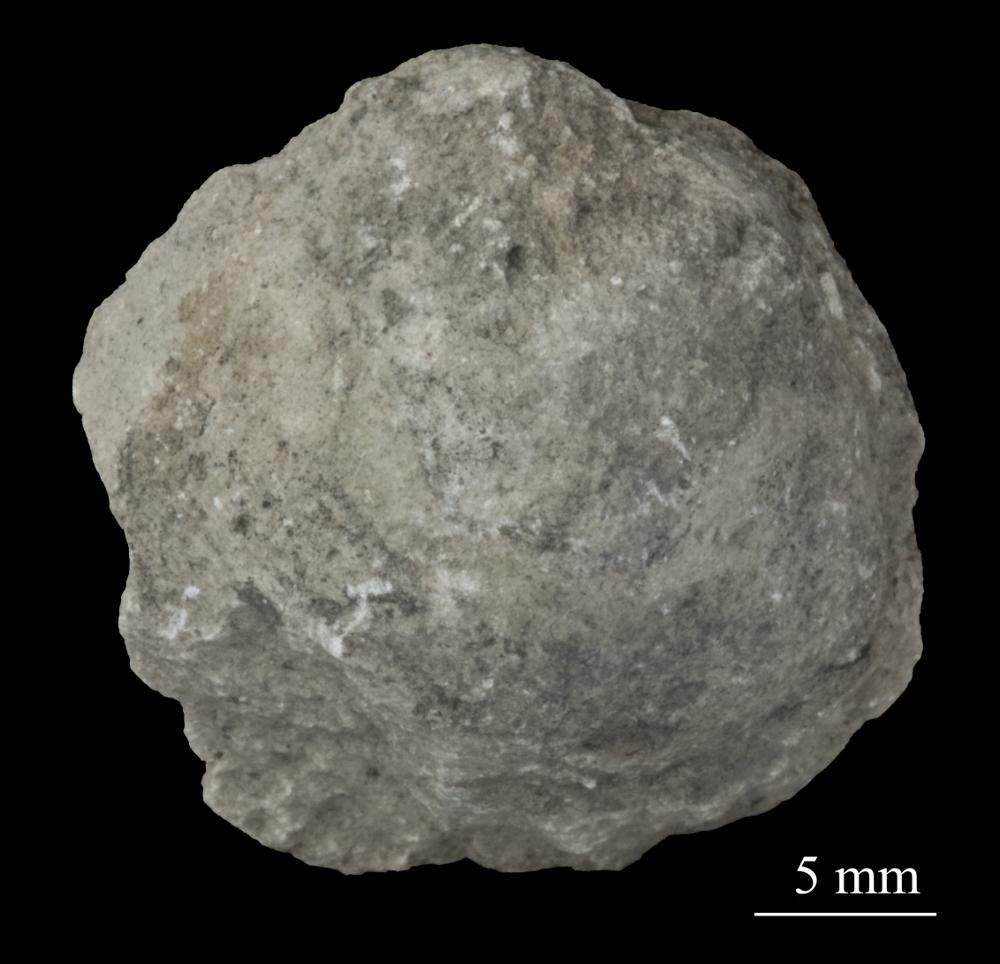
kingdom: Animalia
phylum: Mollusca
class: Bivalvia
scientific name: Bivalvia
